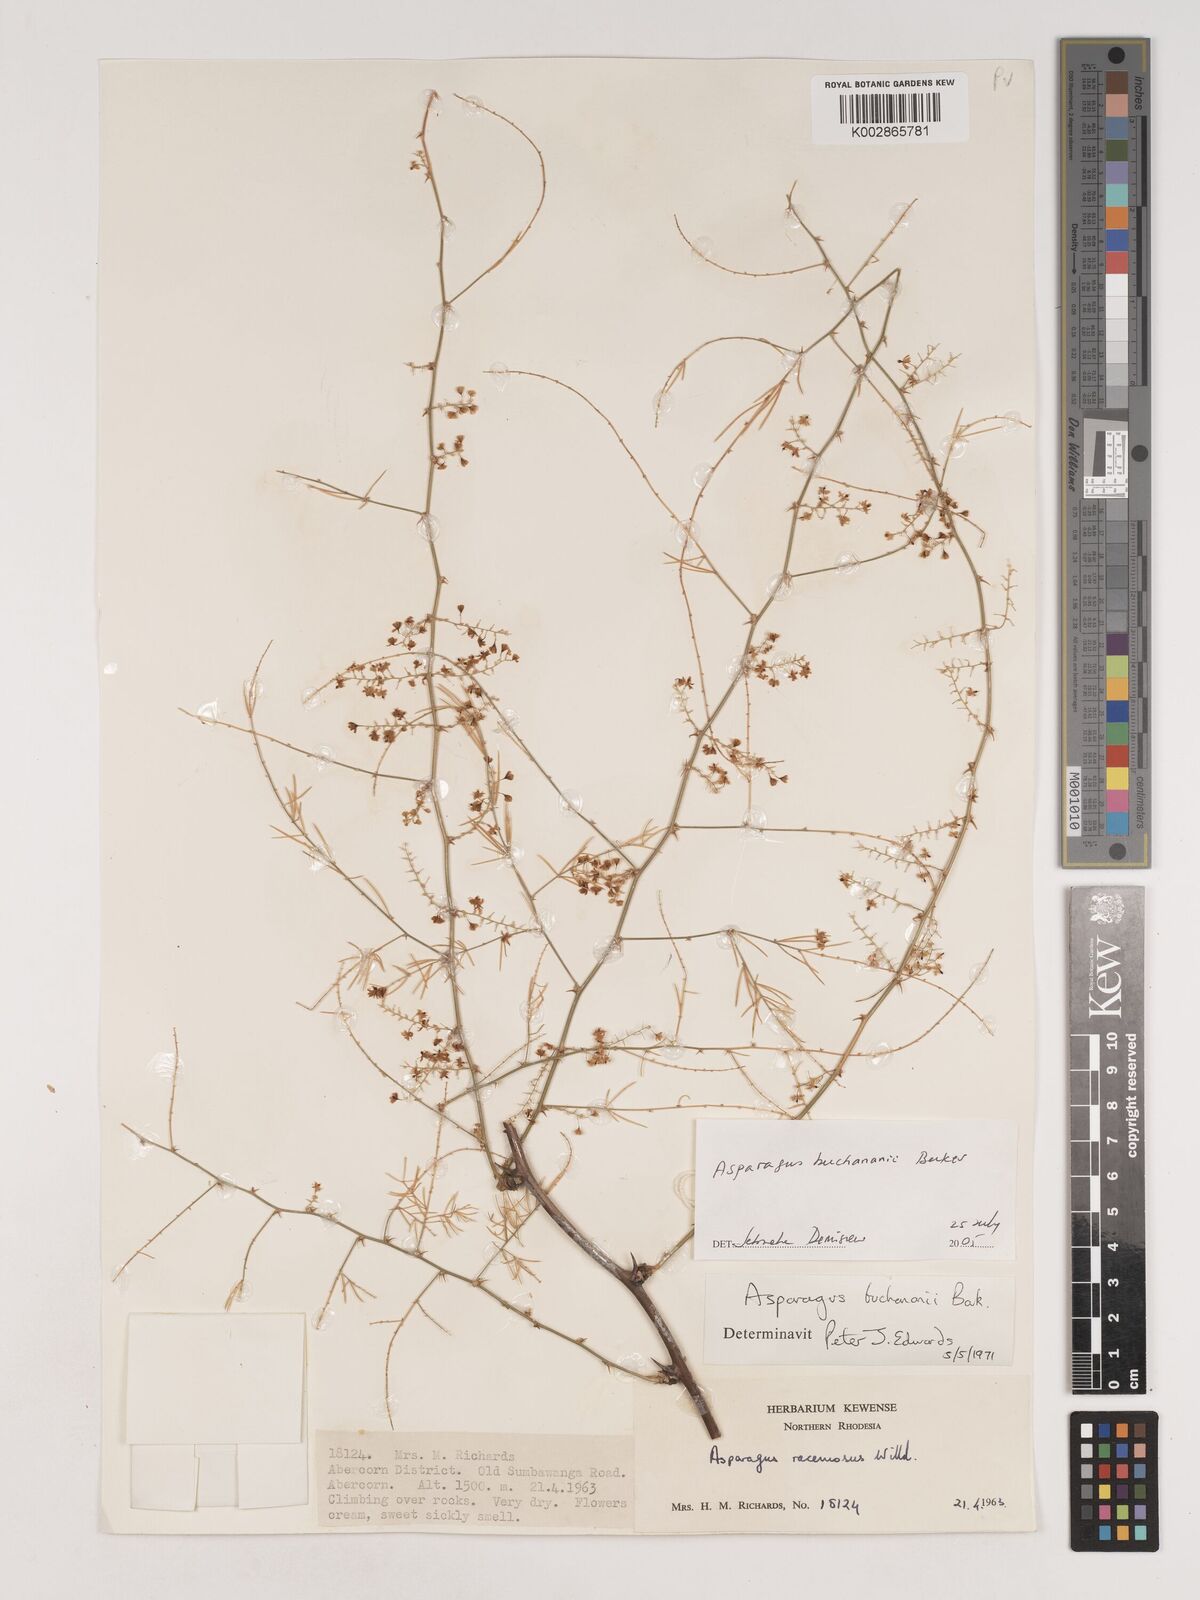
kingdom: Plantae
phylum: Tracheophyta
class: Liliopsida
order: Asparagales
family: Asparagaceae
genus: Asparagus
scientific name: Asparagus buchananii
